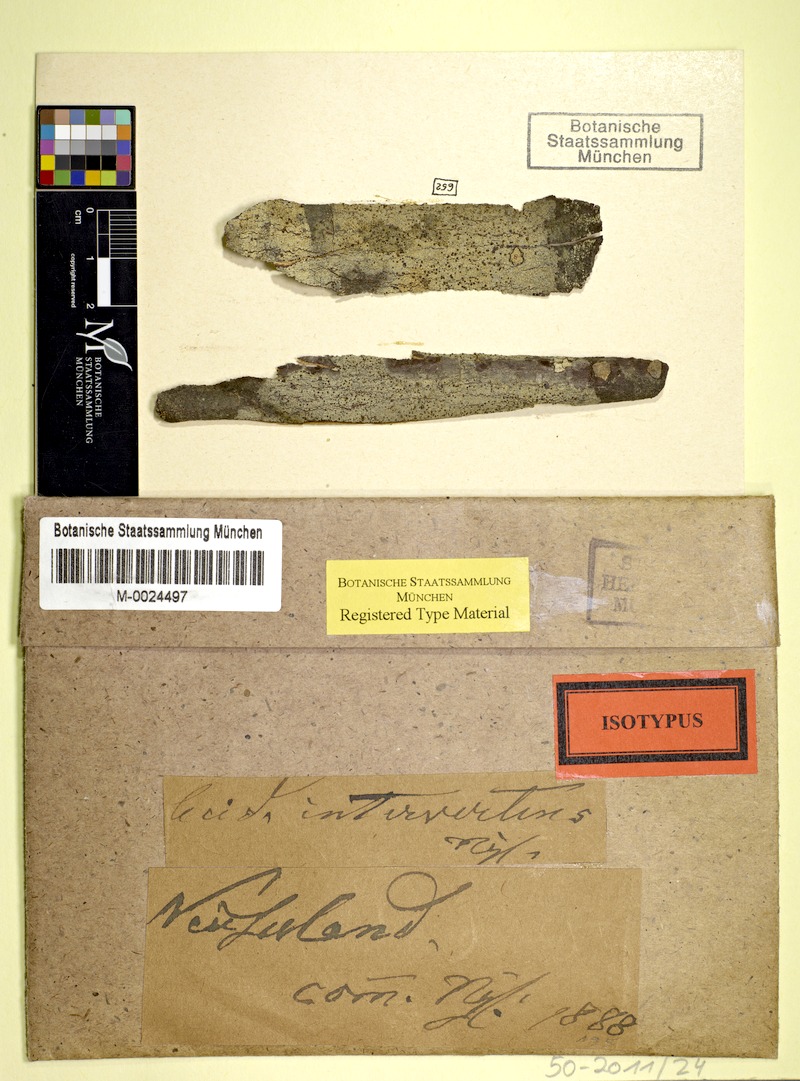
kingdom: Fungi
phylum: Ascomycota
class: Lecanoromycetes
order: Lecanorales
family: Malmideaceae
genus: Australidea
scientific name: Australidea canorufescens
